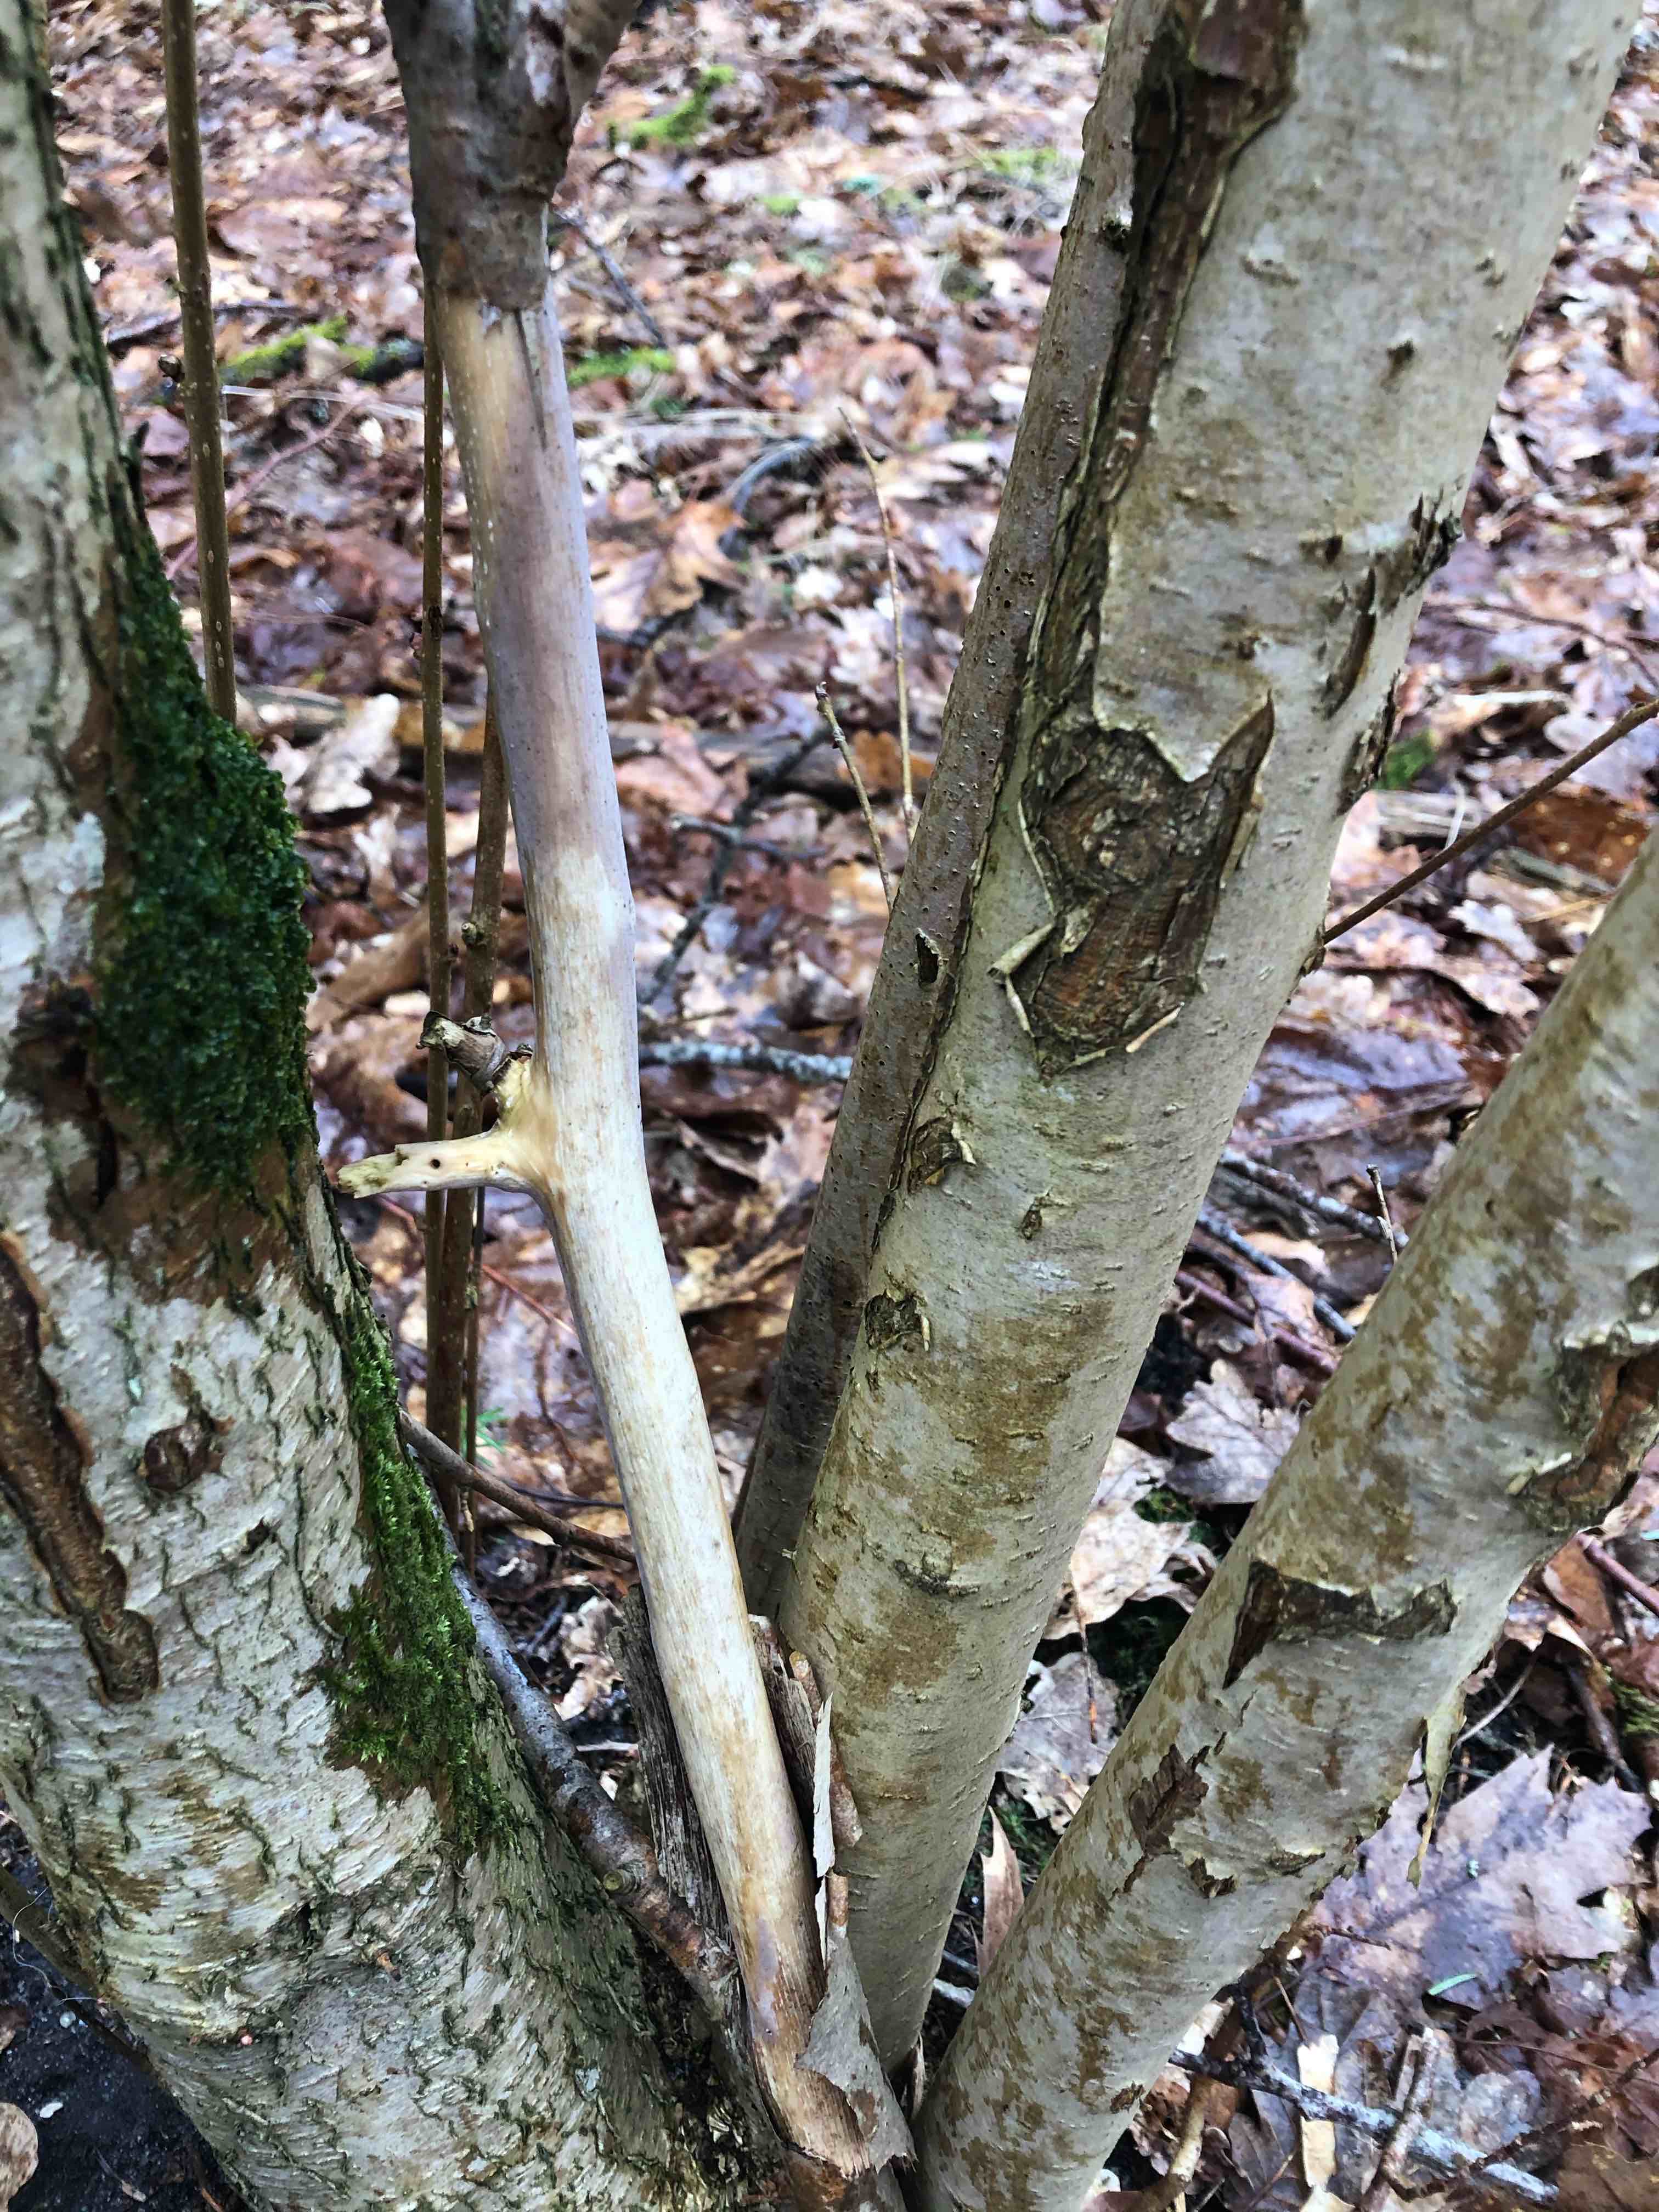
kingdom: Fungi
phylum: Basidiomycota
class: Agaricomycetes
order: Corticiales
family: Corticiaceae
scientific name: Corticiaceae
